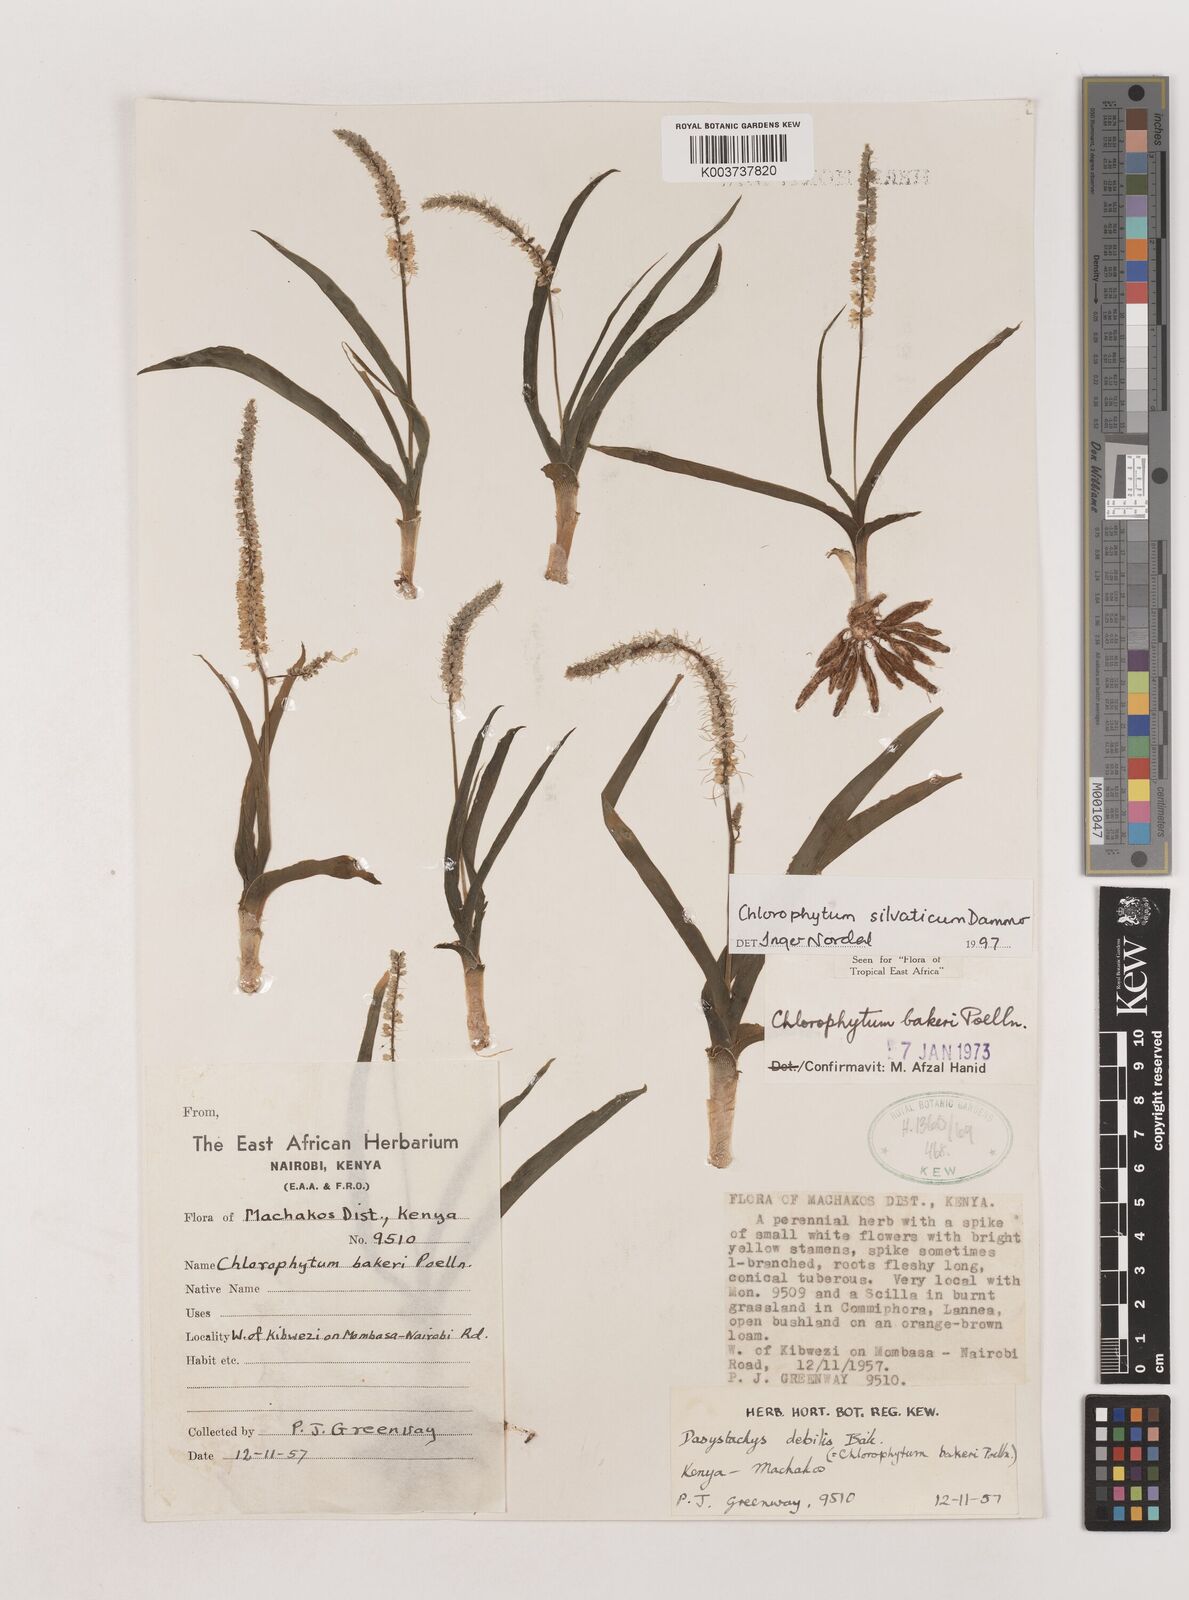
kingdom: Plantae
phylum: Tracheophyta
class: Liliopsida
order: Asparagales
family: Asparagaceae
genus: Chlorophytum
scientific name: Chlorophytum africanum
